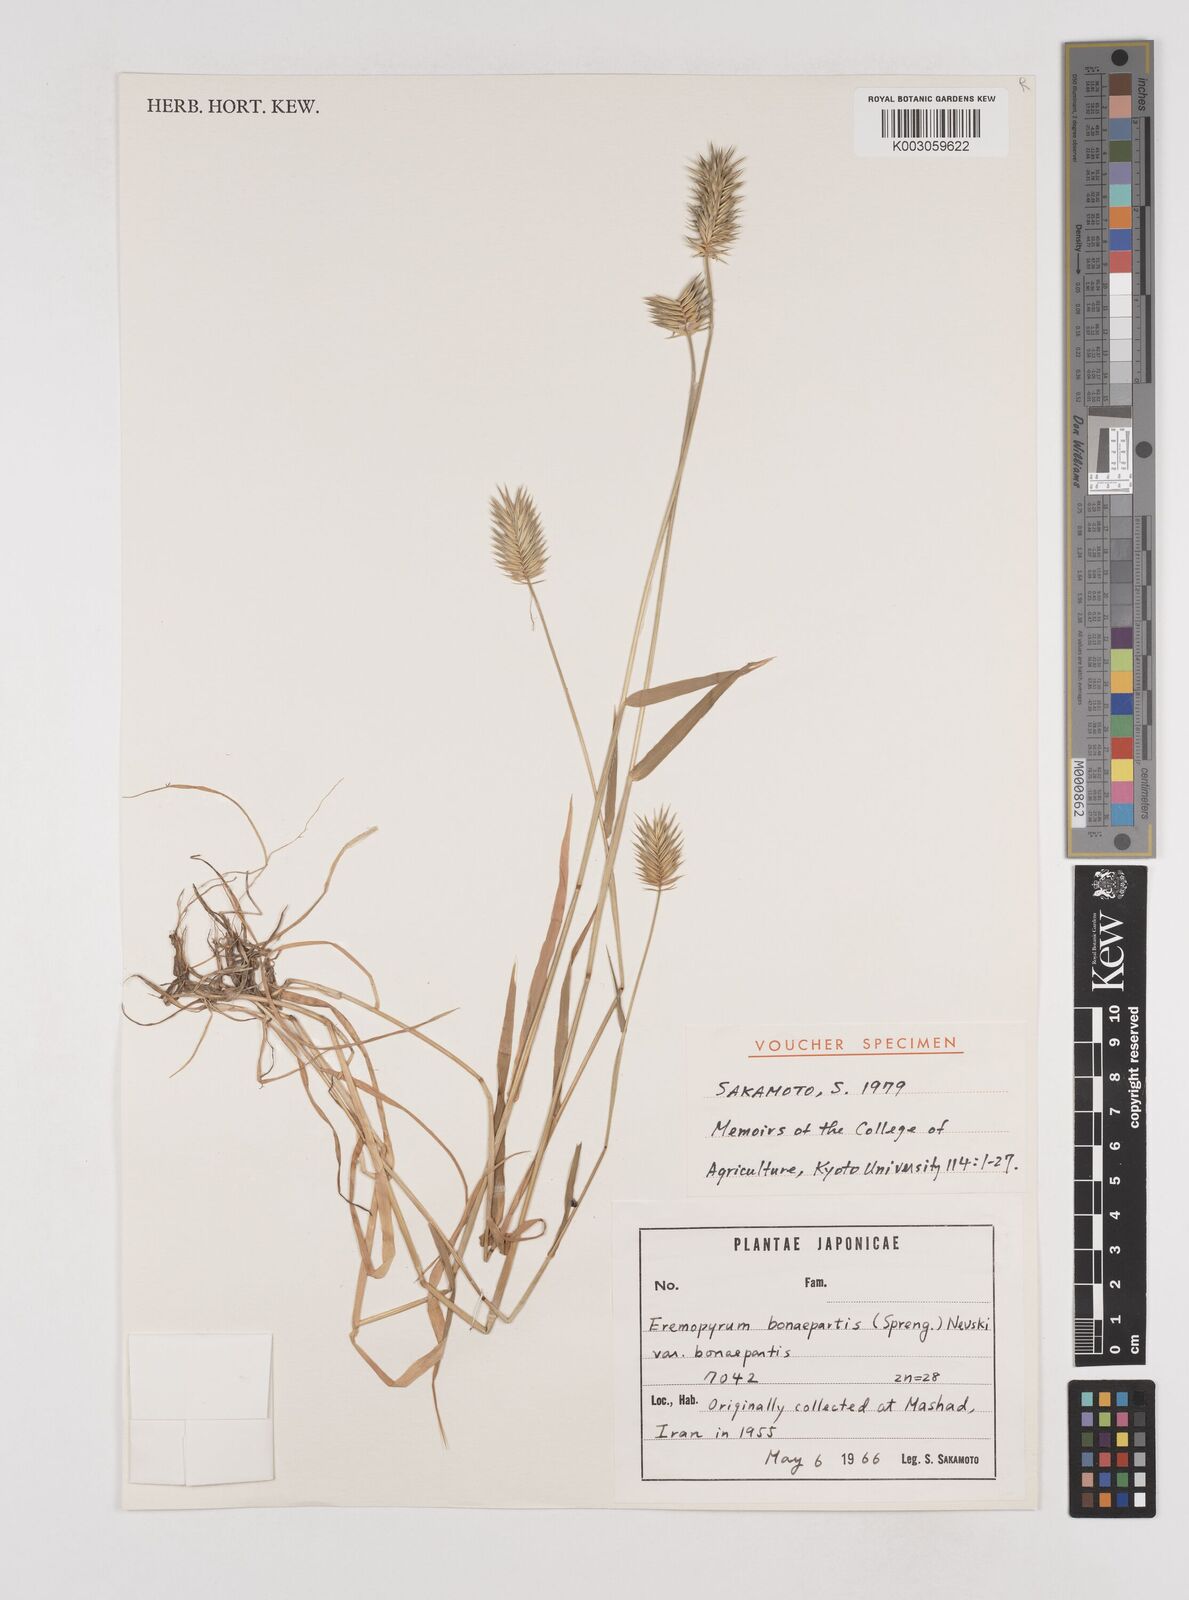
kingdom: Plantae
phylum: Tracheophyta
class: Liliopsida
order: Poales
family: Poaceae
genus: Eremopyrum
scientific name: Eremopyrum bonaepartis
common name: Tapertip false wheatgrass
